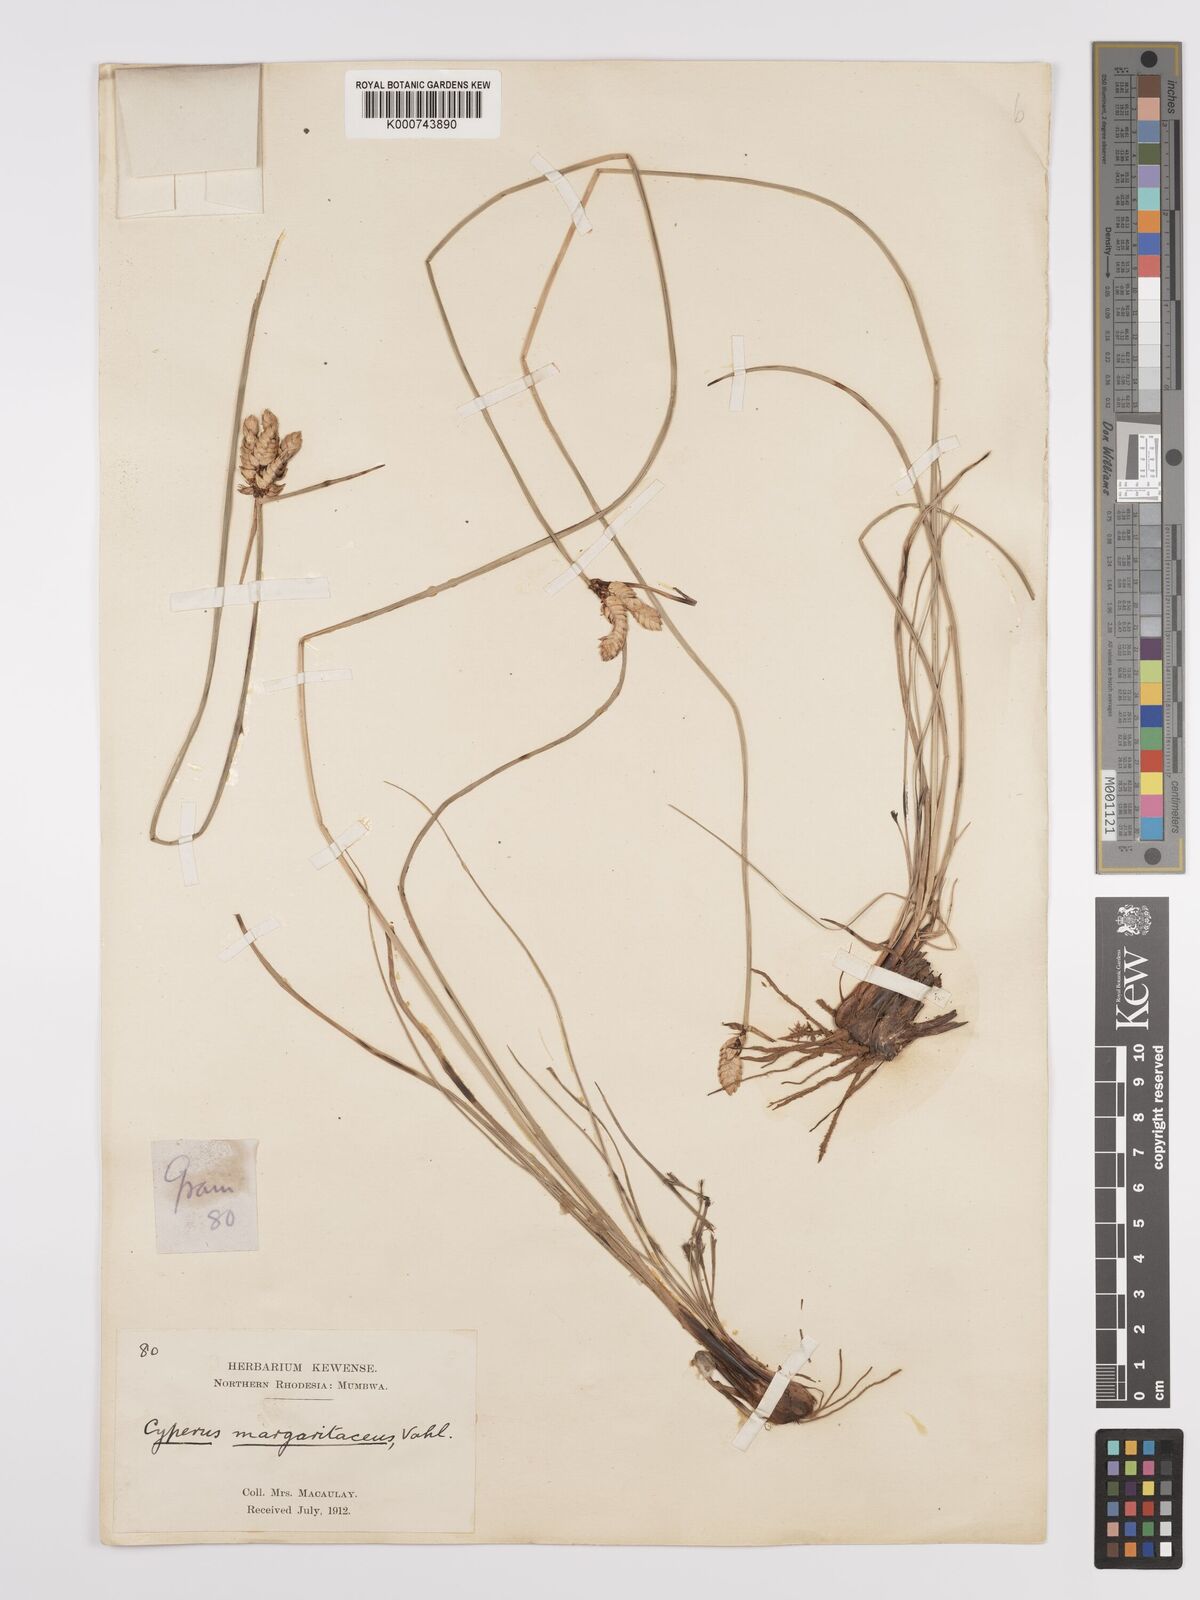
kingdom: Plantae
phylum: Tracheophyta
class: Liliopsida
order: Poales
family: Cyperaceae
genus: Cyperus
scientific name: Cyperus margaritaceus
